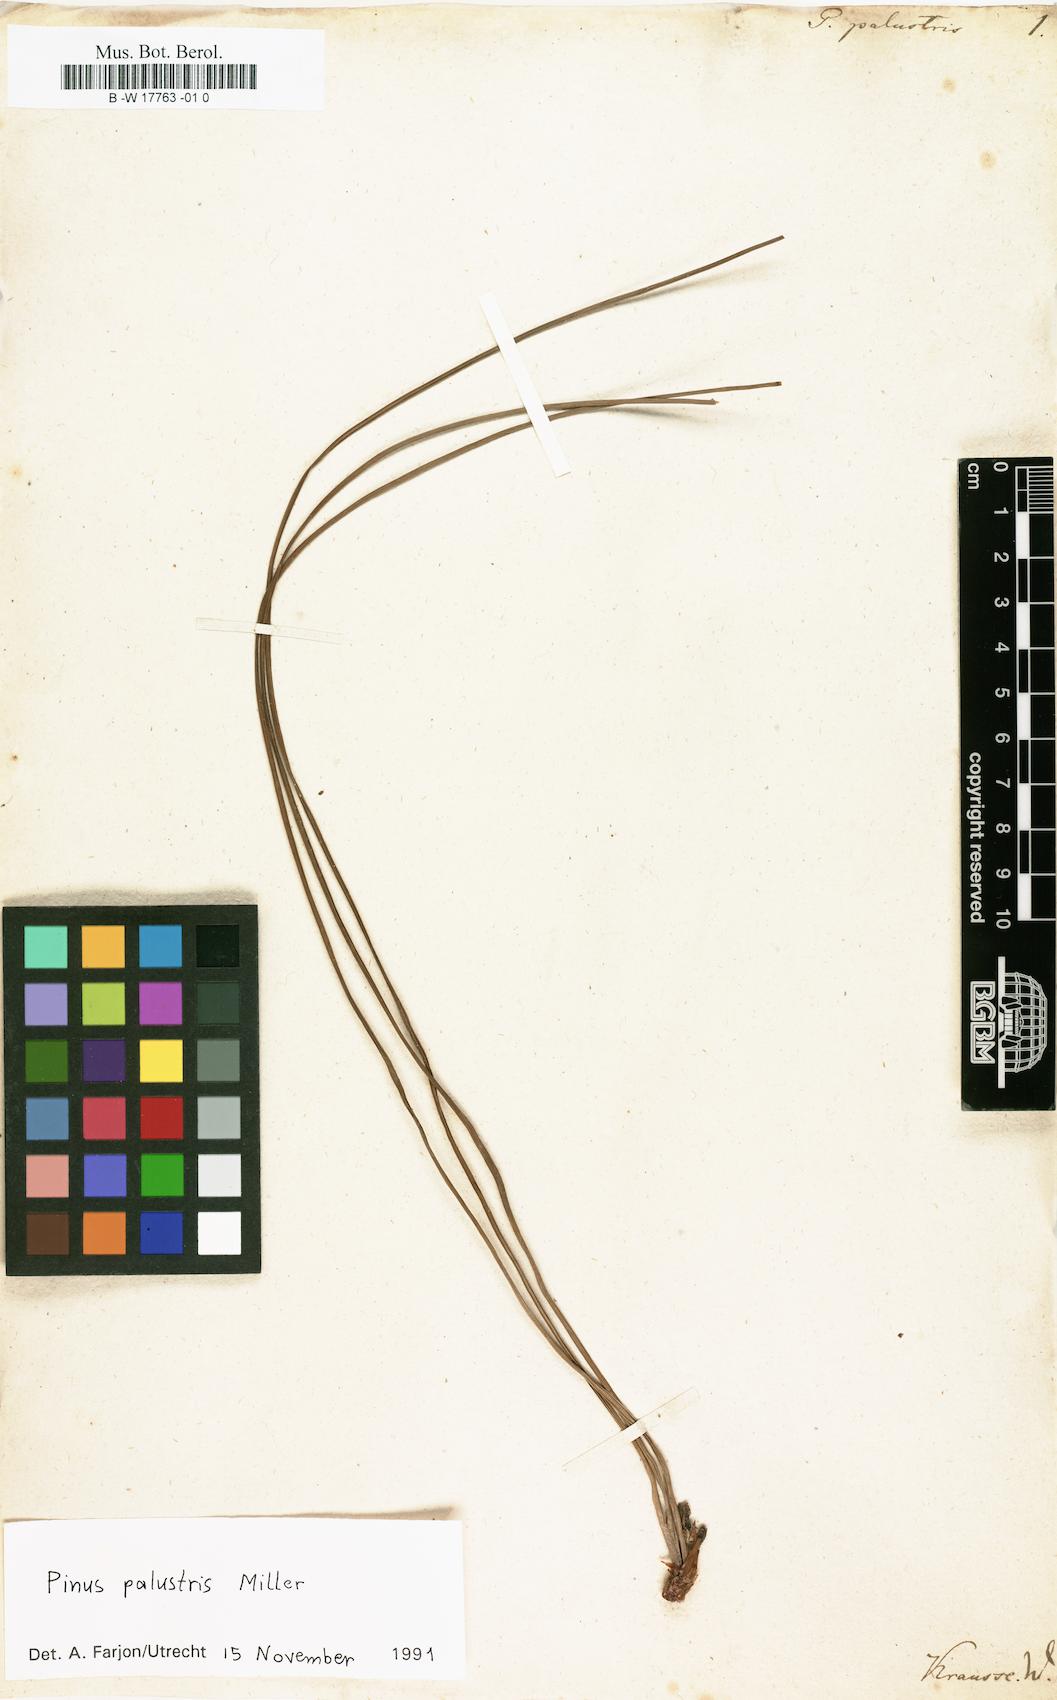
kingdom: Plantae
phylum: Tracheophyta
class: Pinopsida
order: Pinales
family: Pinaceae
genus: Pinus
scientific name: Pinus palustris
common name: Longleaf pine
